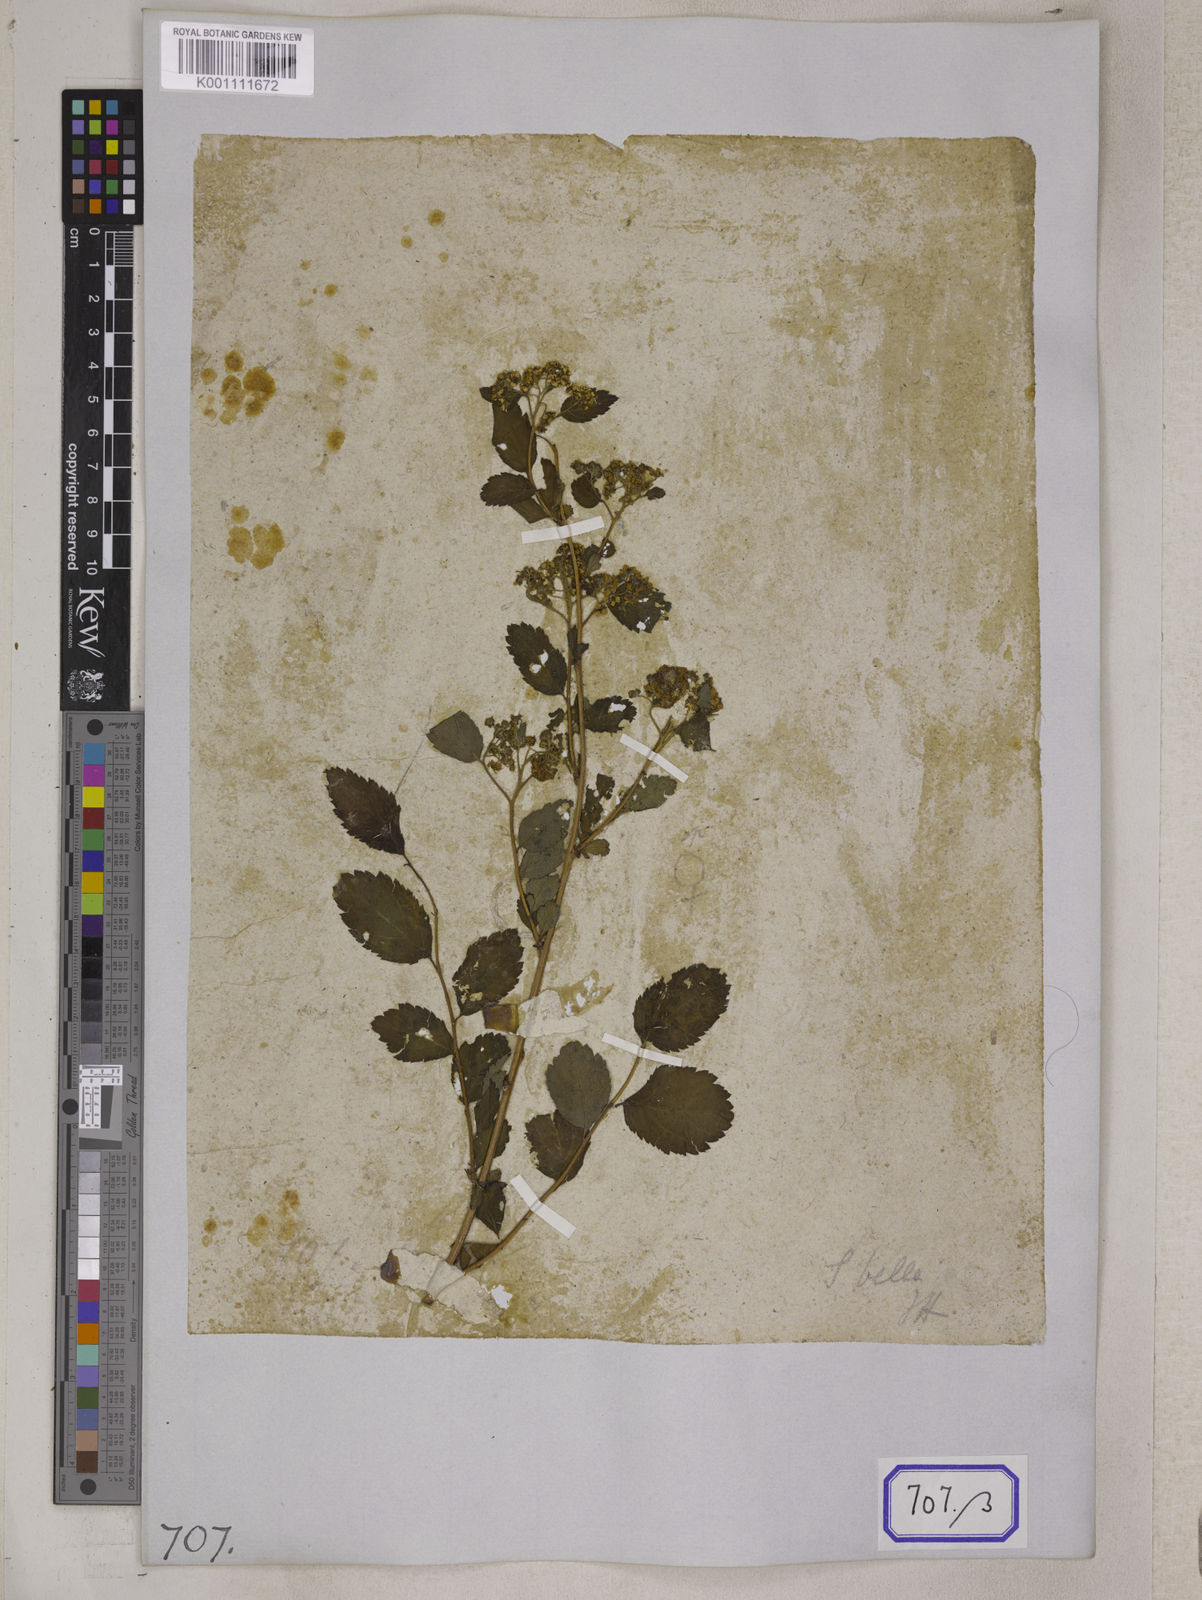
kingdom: Plantae
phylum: Tracheophyta
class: Magnoliopsida
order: Rosales
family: Rosaceae
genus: Spiraea
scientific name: Spiraea bella
